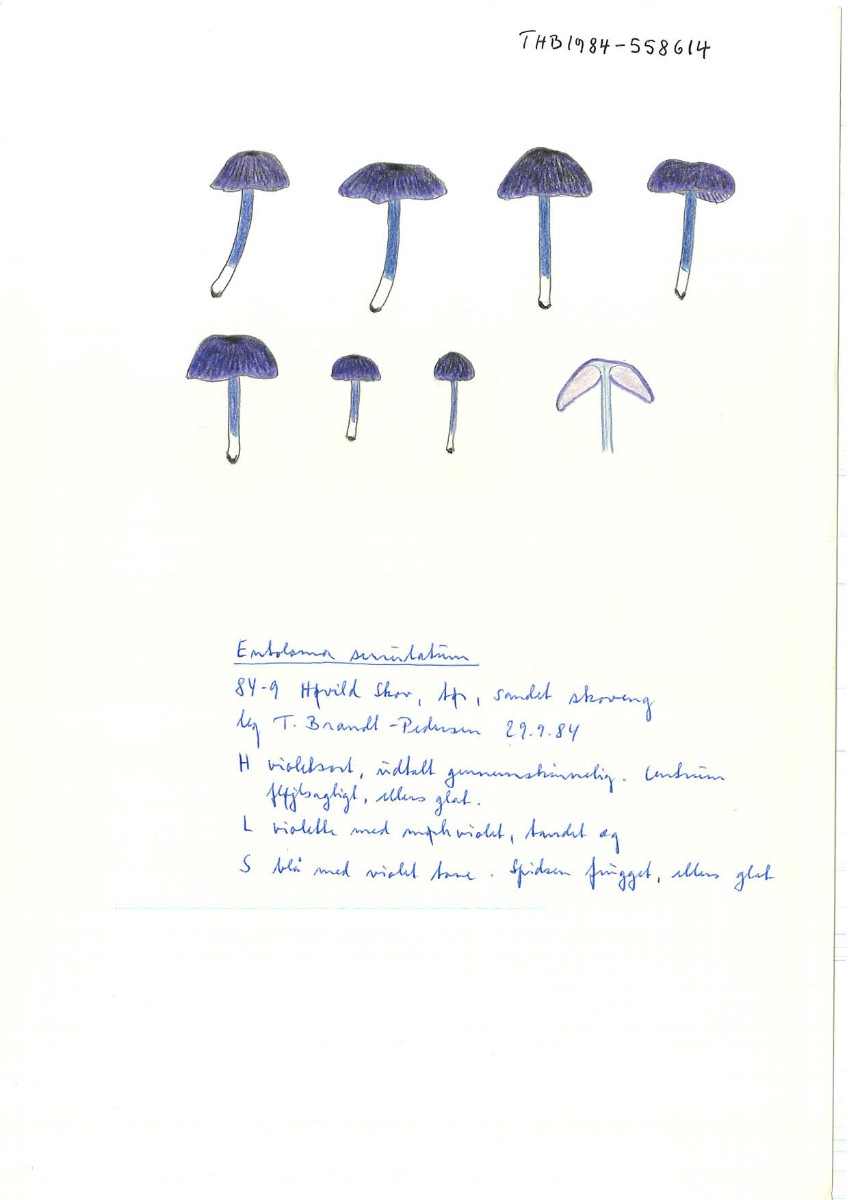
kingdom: Fungi
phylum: Basidiomycota
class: Agaricomycetes
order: Agaricales
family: Entolomataceae
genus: Entoloma
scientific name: Entoloma
